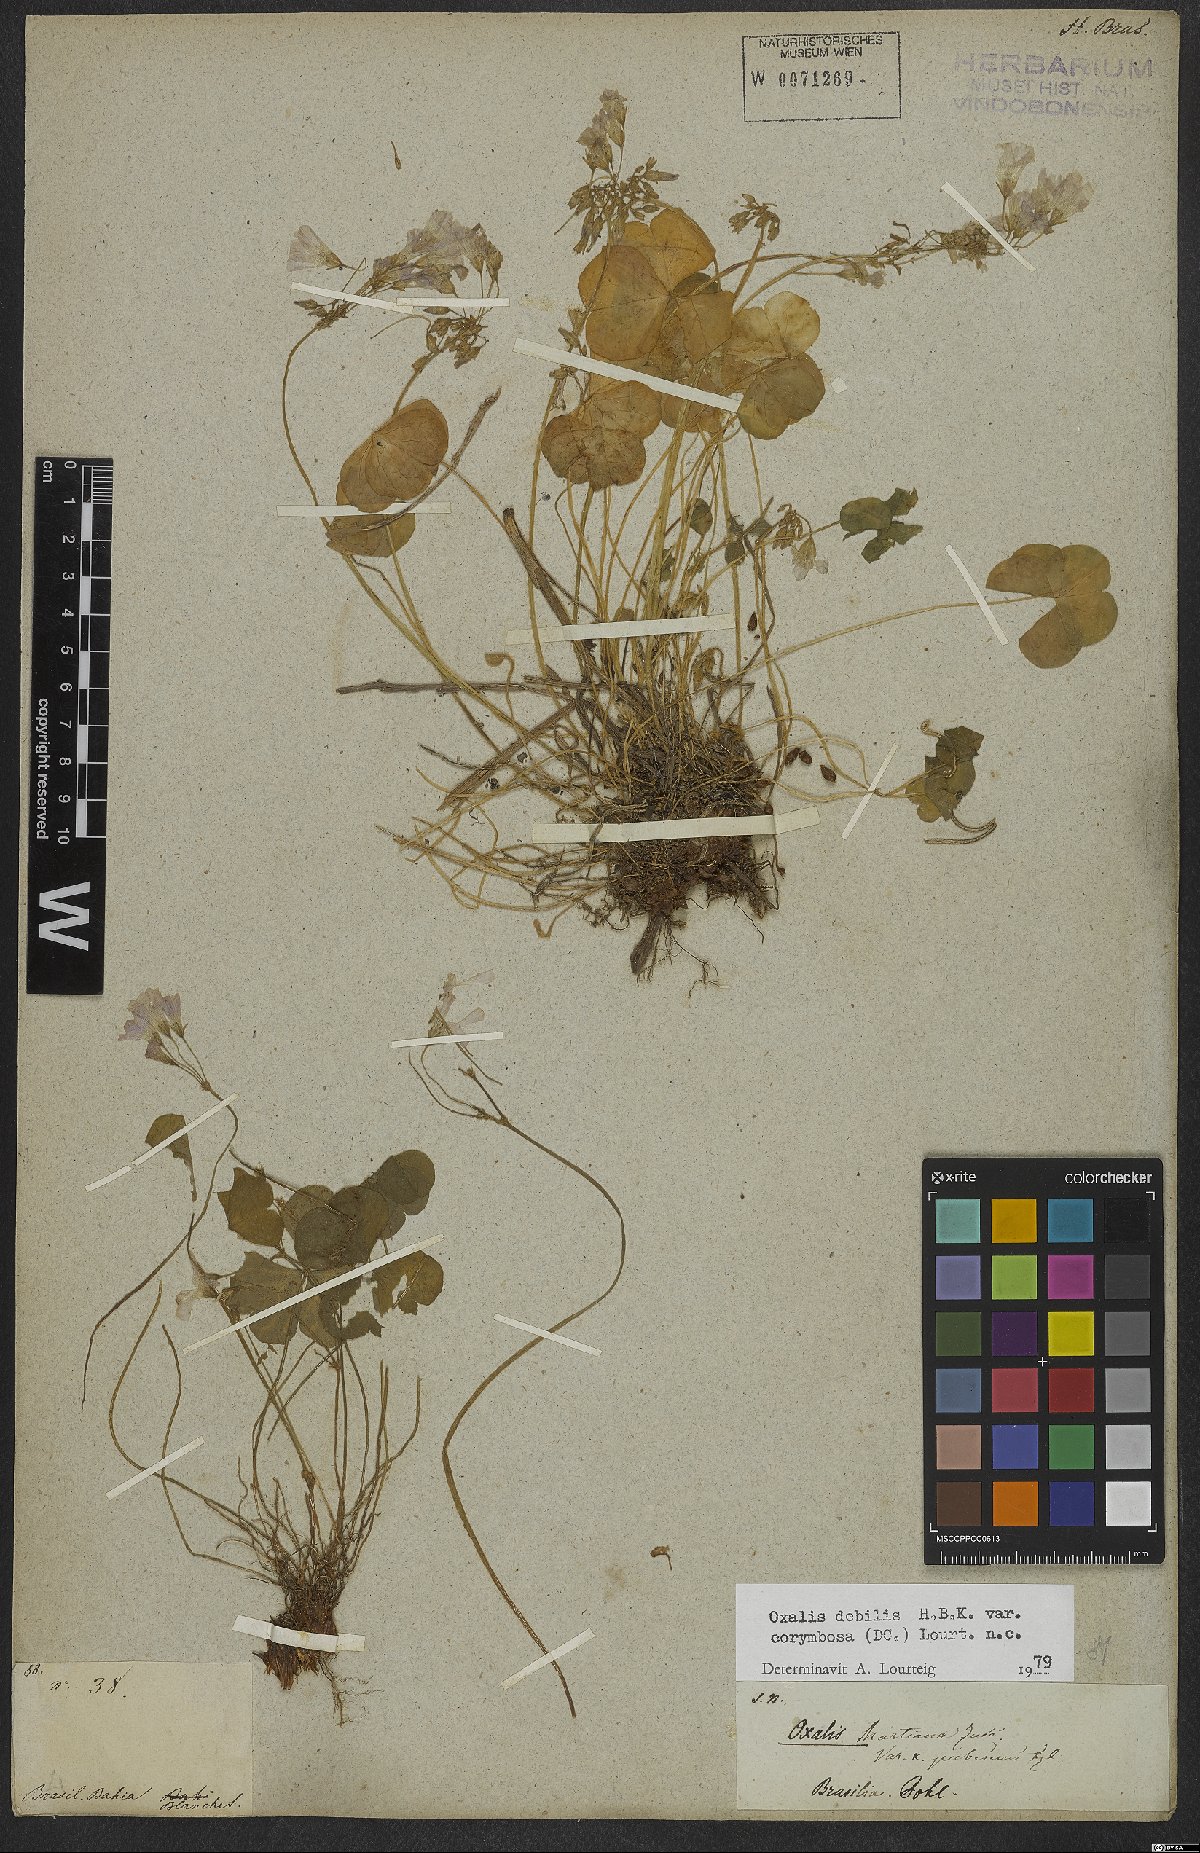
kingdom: Plantae
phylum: Tracheophyta
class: Magnoliopsida
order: Oxalidales
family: Oxalidaceae
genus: Oxalis
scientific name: Oxalis debilis
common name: Large-flowered pink-sorrel
